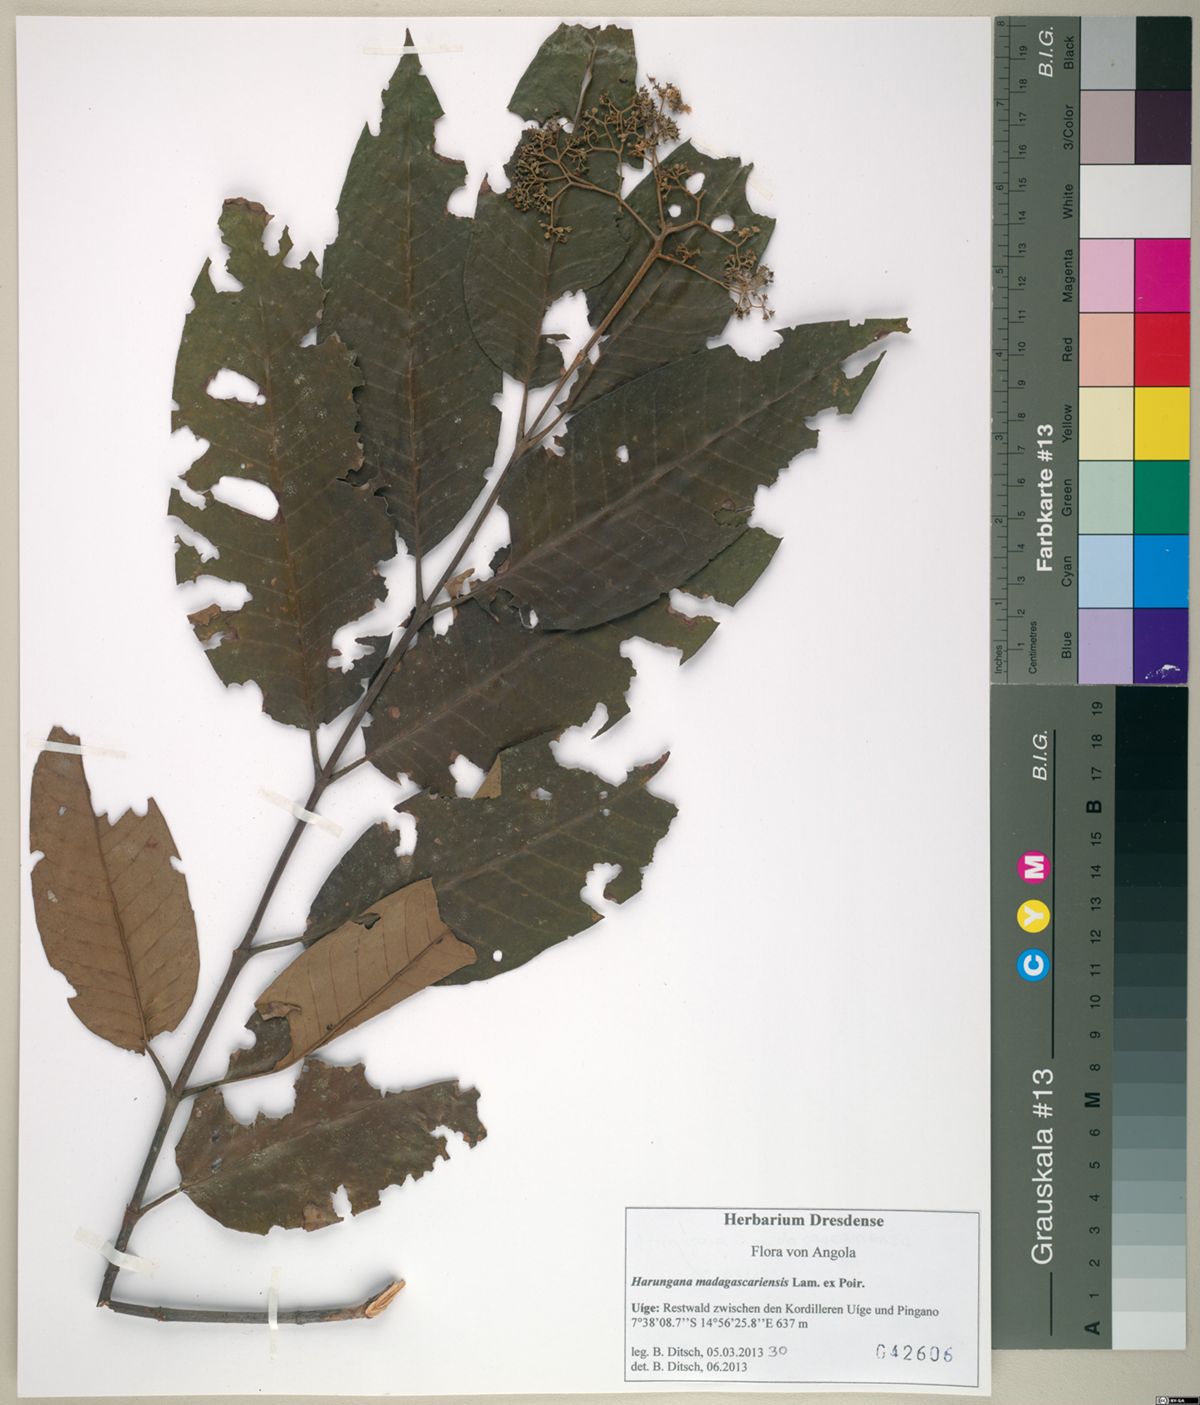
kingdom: Plantae
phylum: Tracheophyta
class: Magnoliopsida
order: Malpighiales
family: Hypericaceae
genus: Harungana
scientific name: Harungana madagascariensis
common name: Orange milktree
